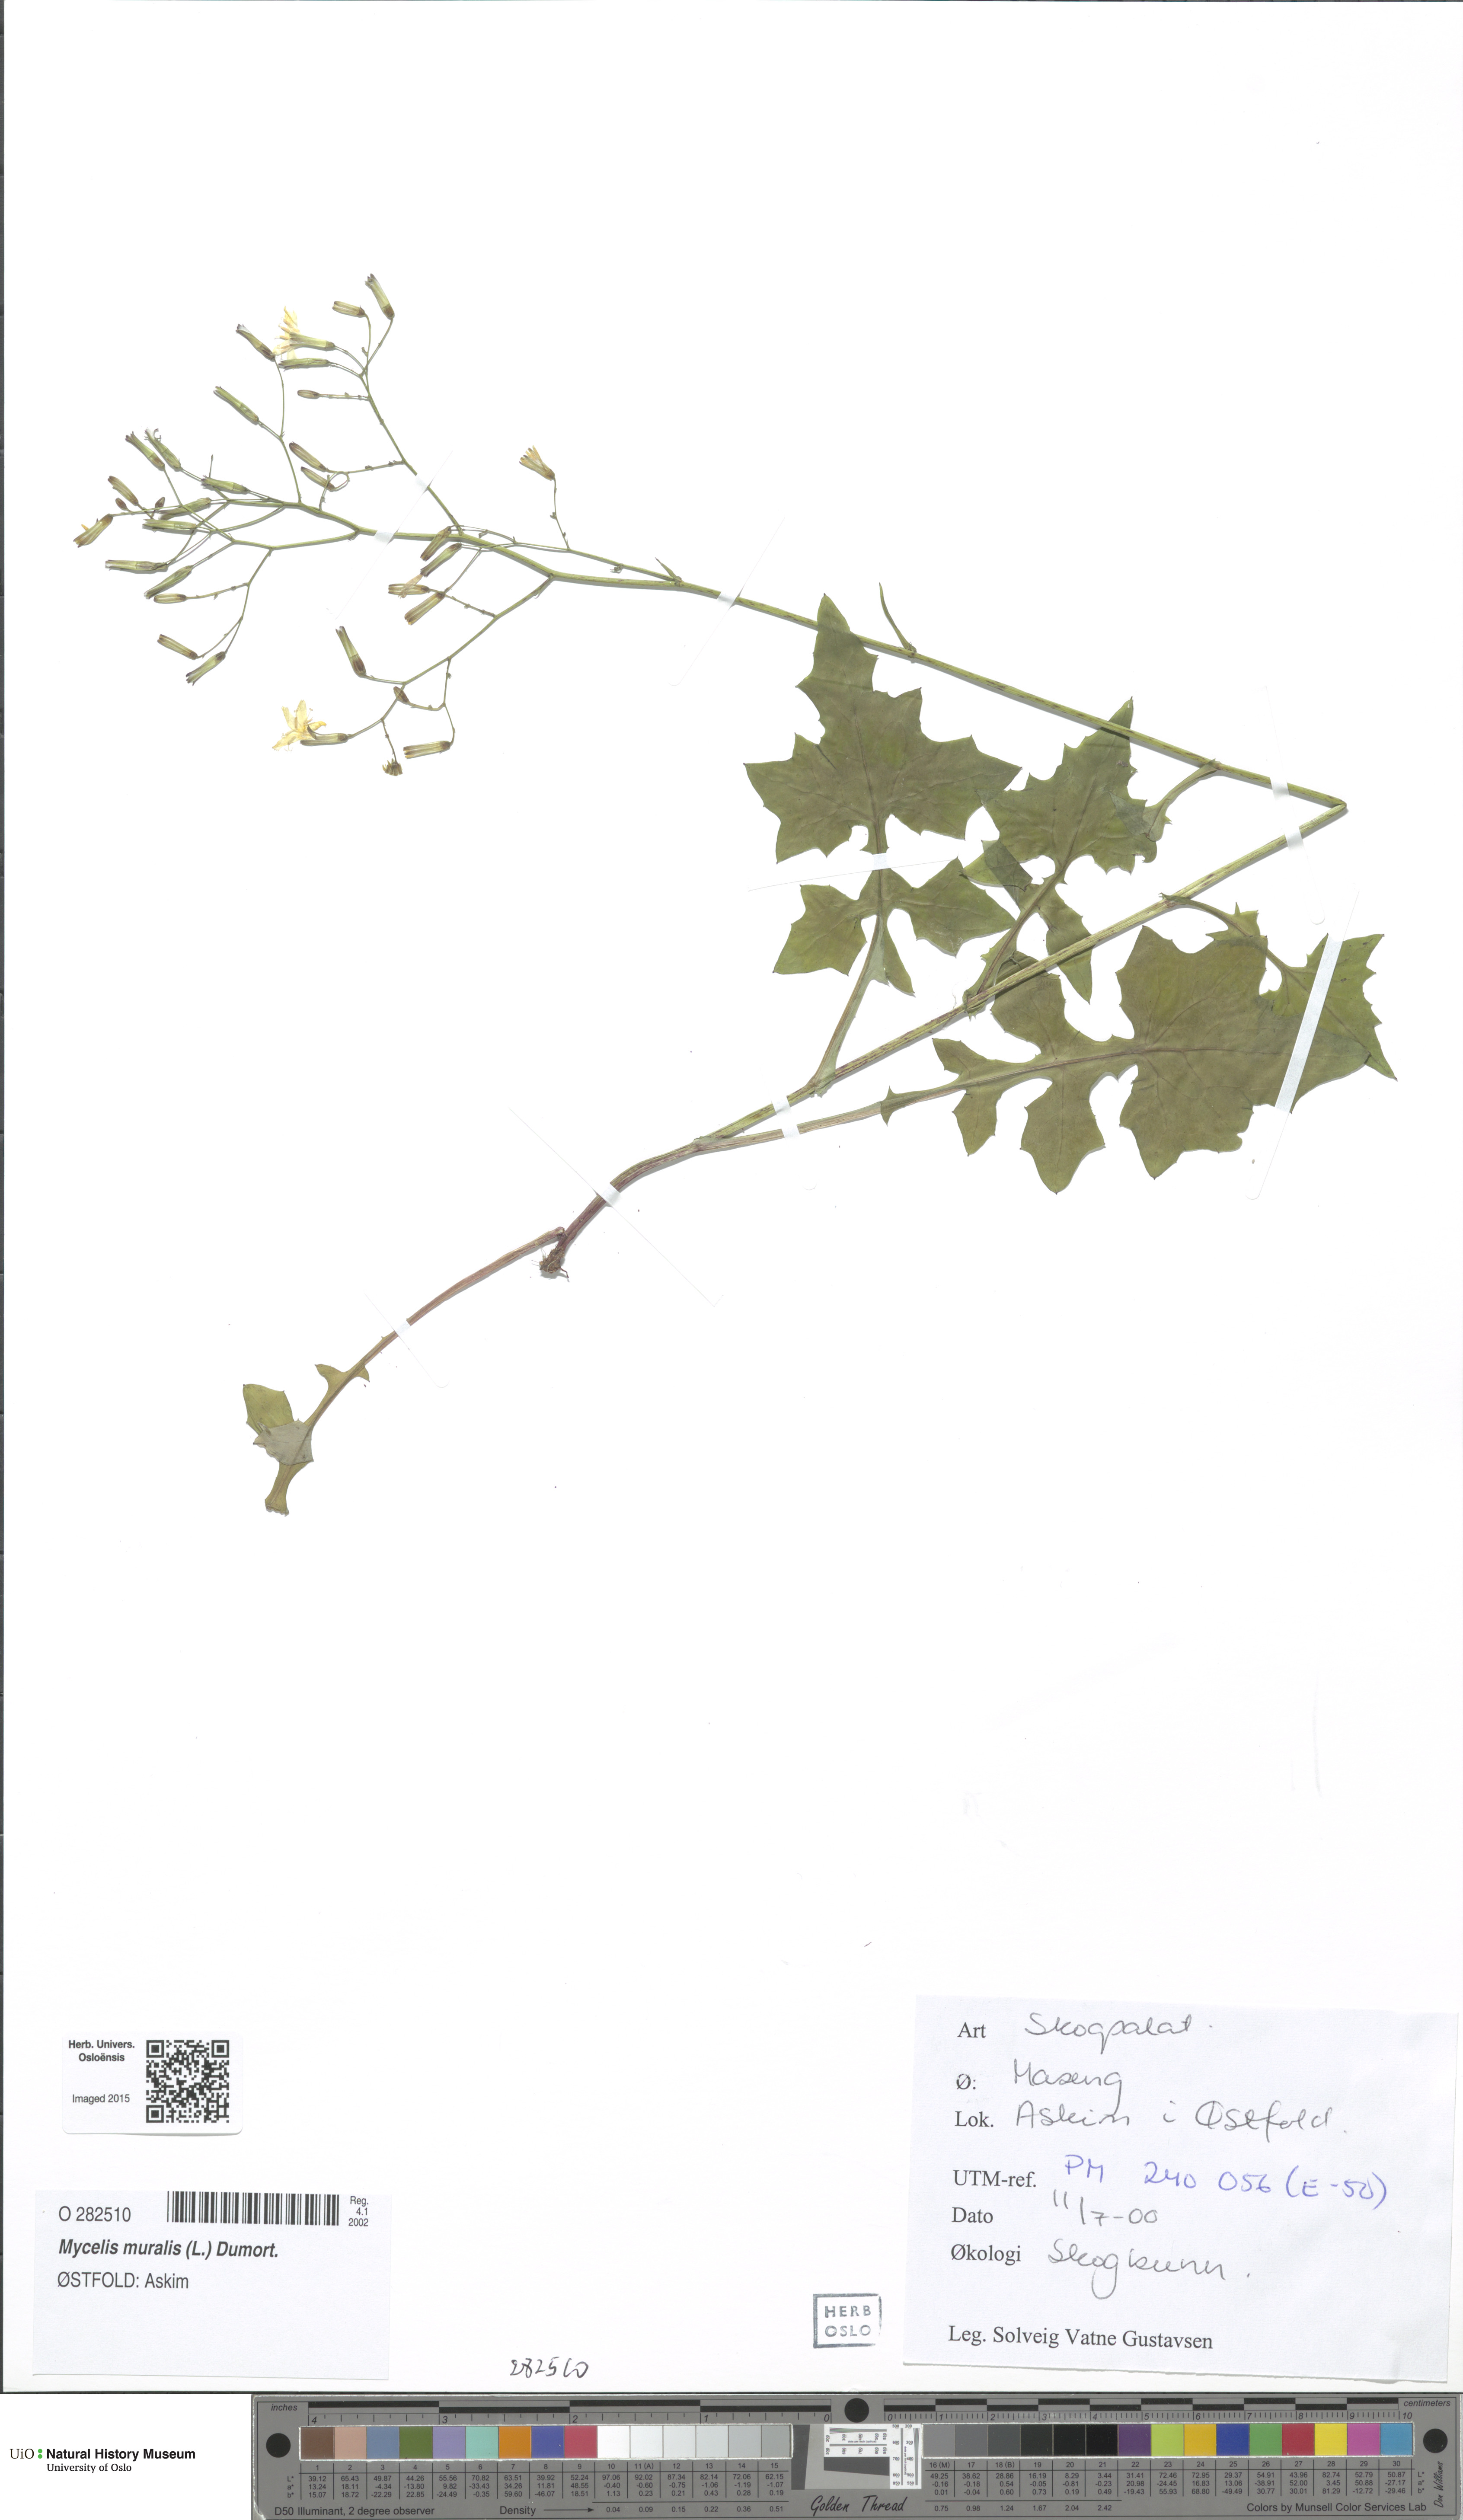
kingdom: Plantae
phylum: Tracheophyta
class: Magnoliopsida
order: Asterales
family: Asteraceae
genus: Mycelis
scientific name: Mycelis muralis
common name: Wall lettuce
